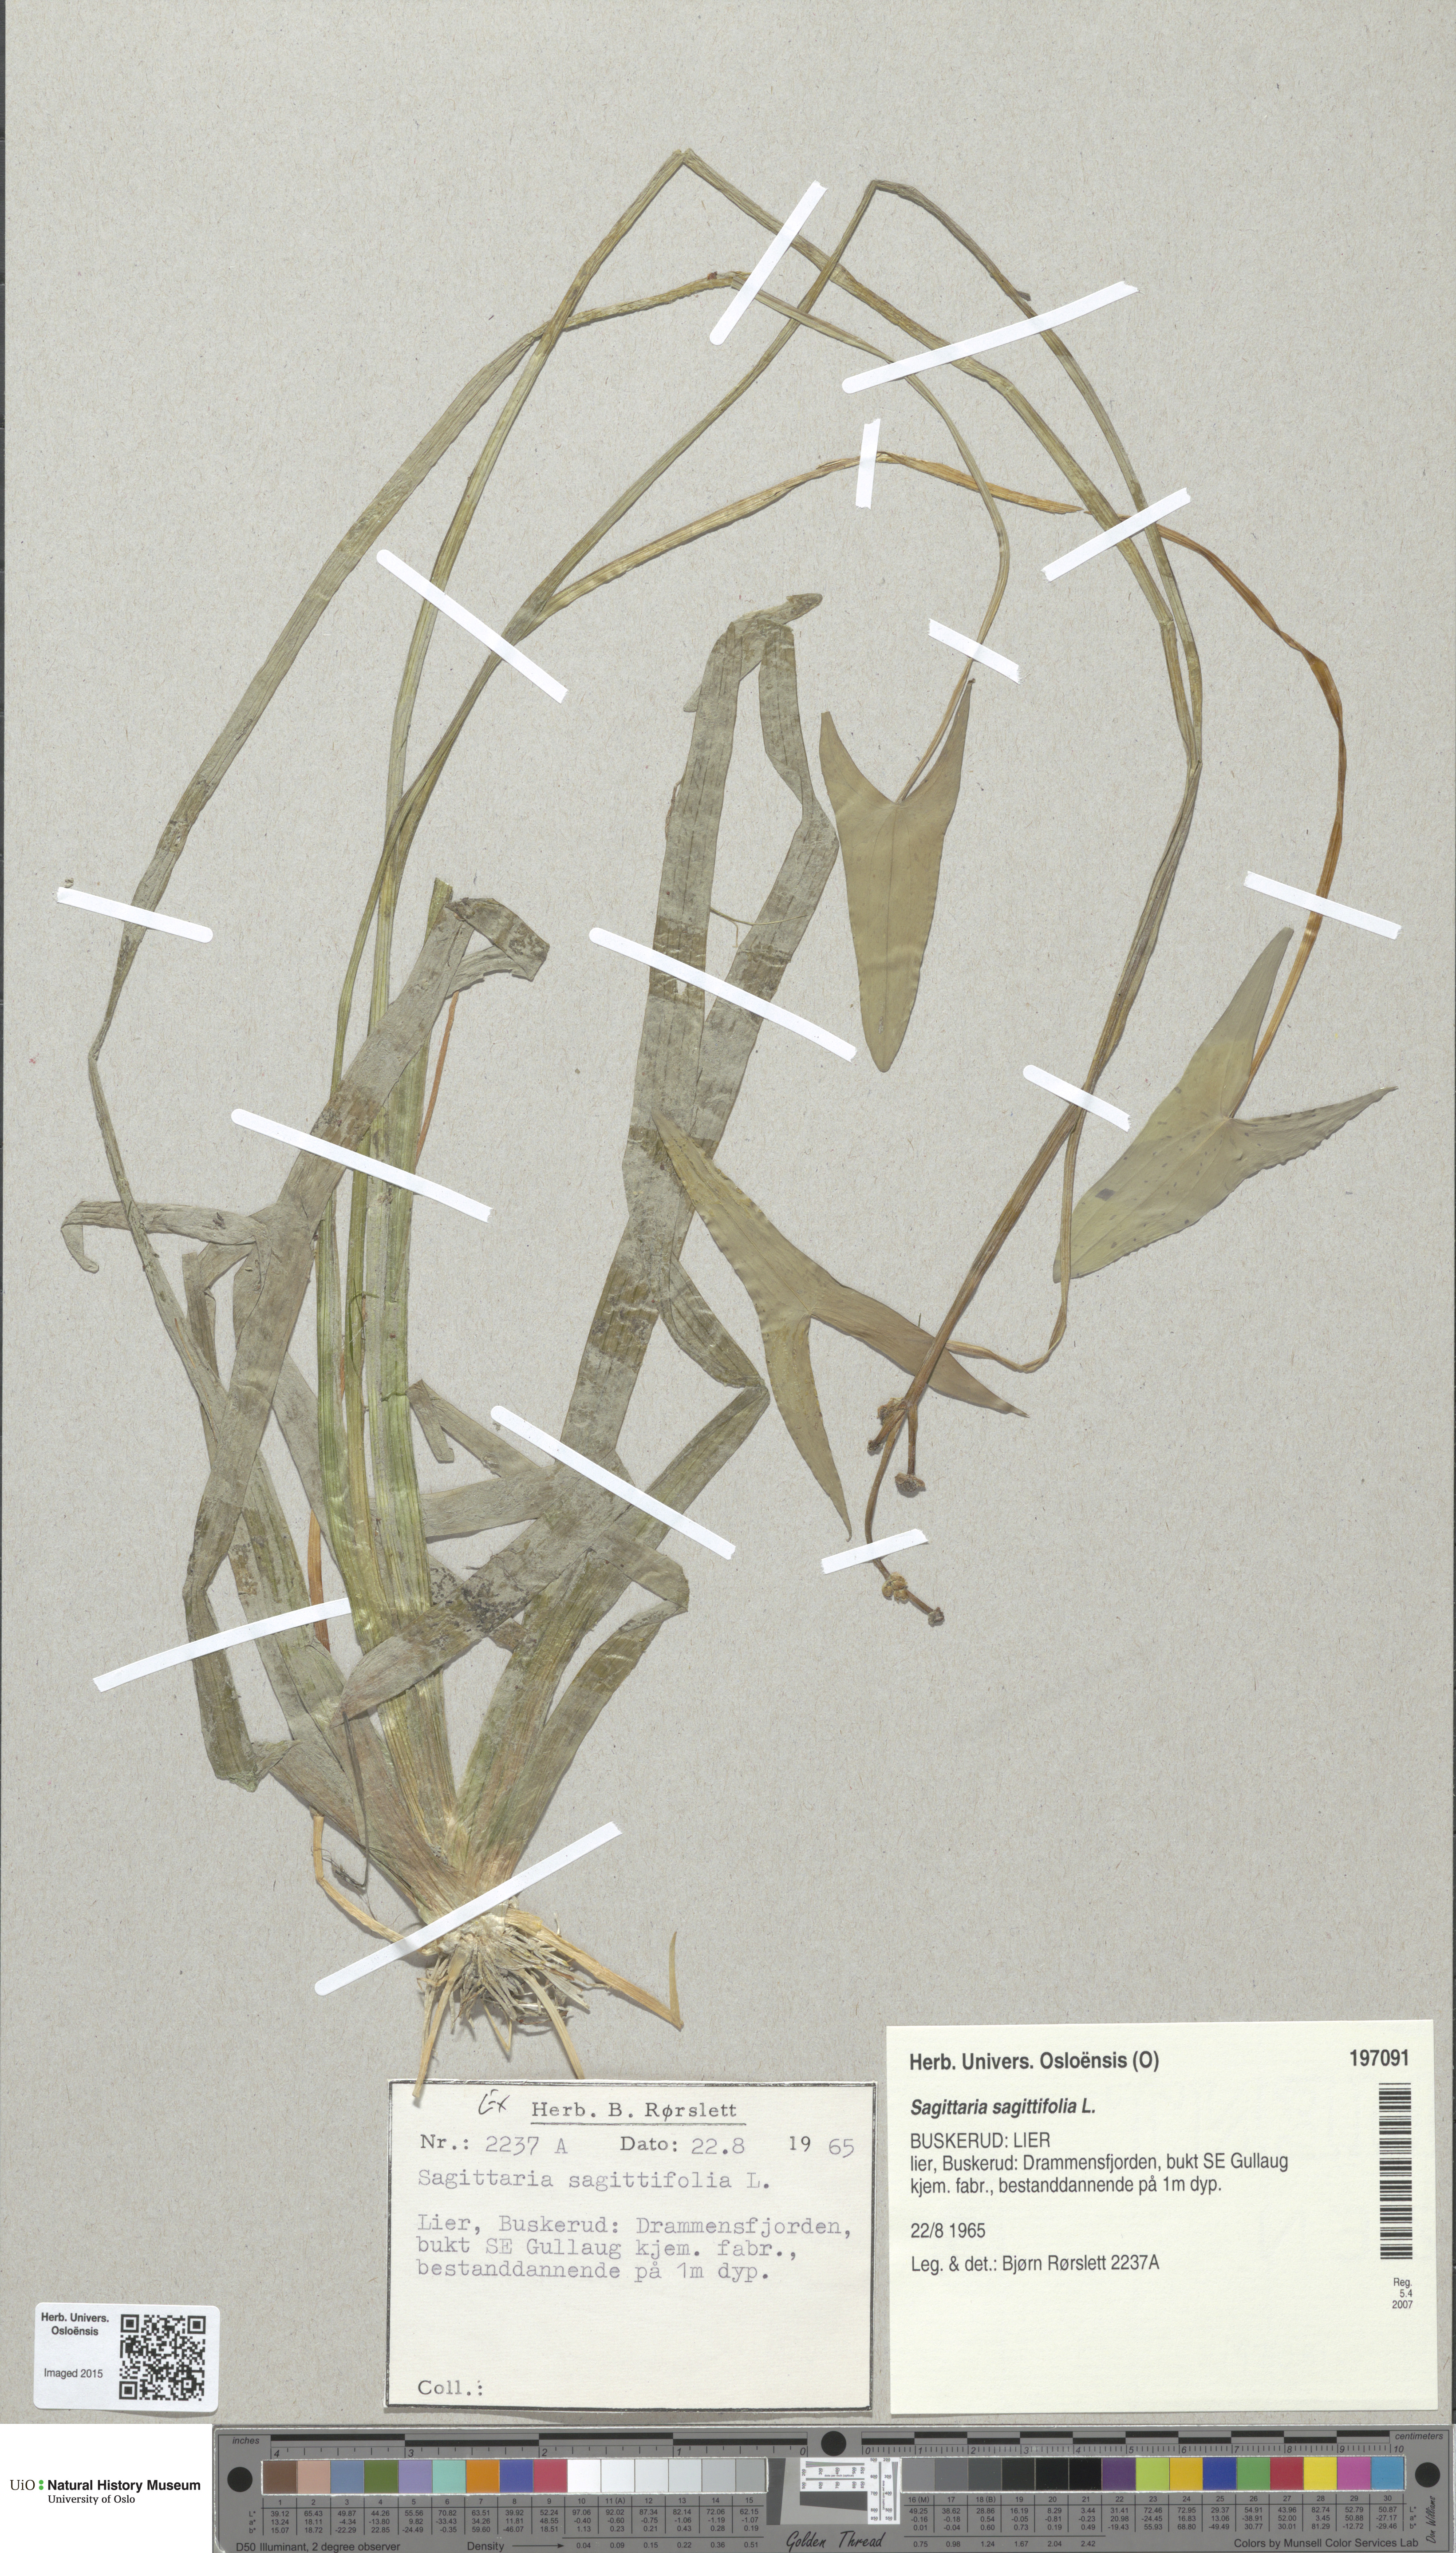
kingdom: Plantae
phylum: Tracheophyta
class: Liliopsida
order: Alismatales
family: Alismataceae
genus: Sagittaria
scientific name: Sagittaria sagittifolia
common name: Arrowhead
